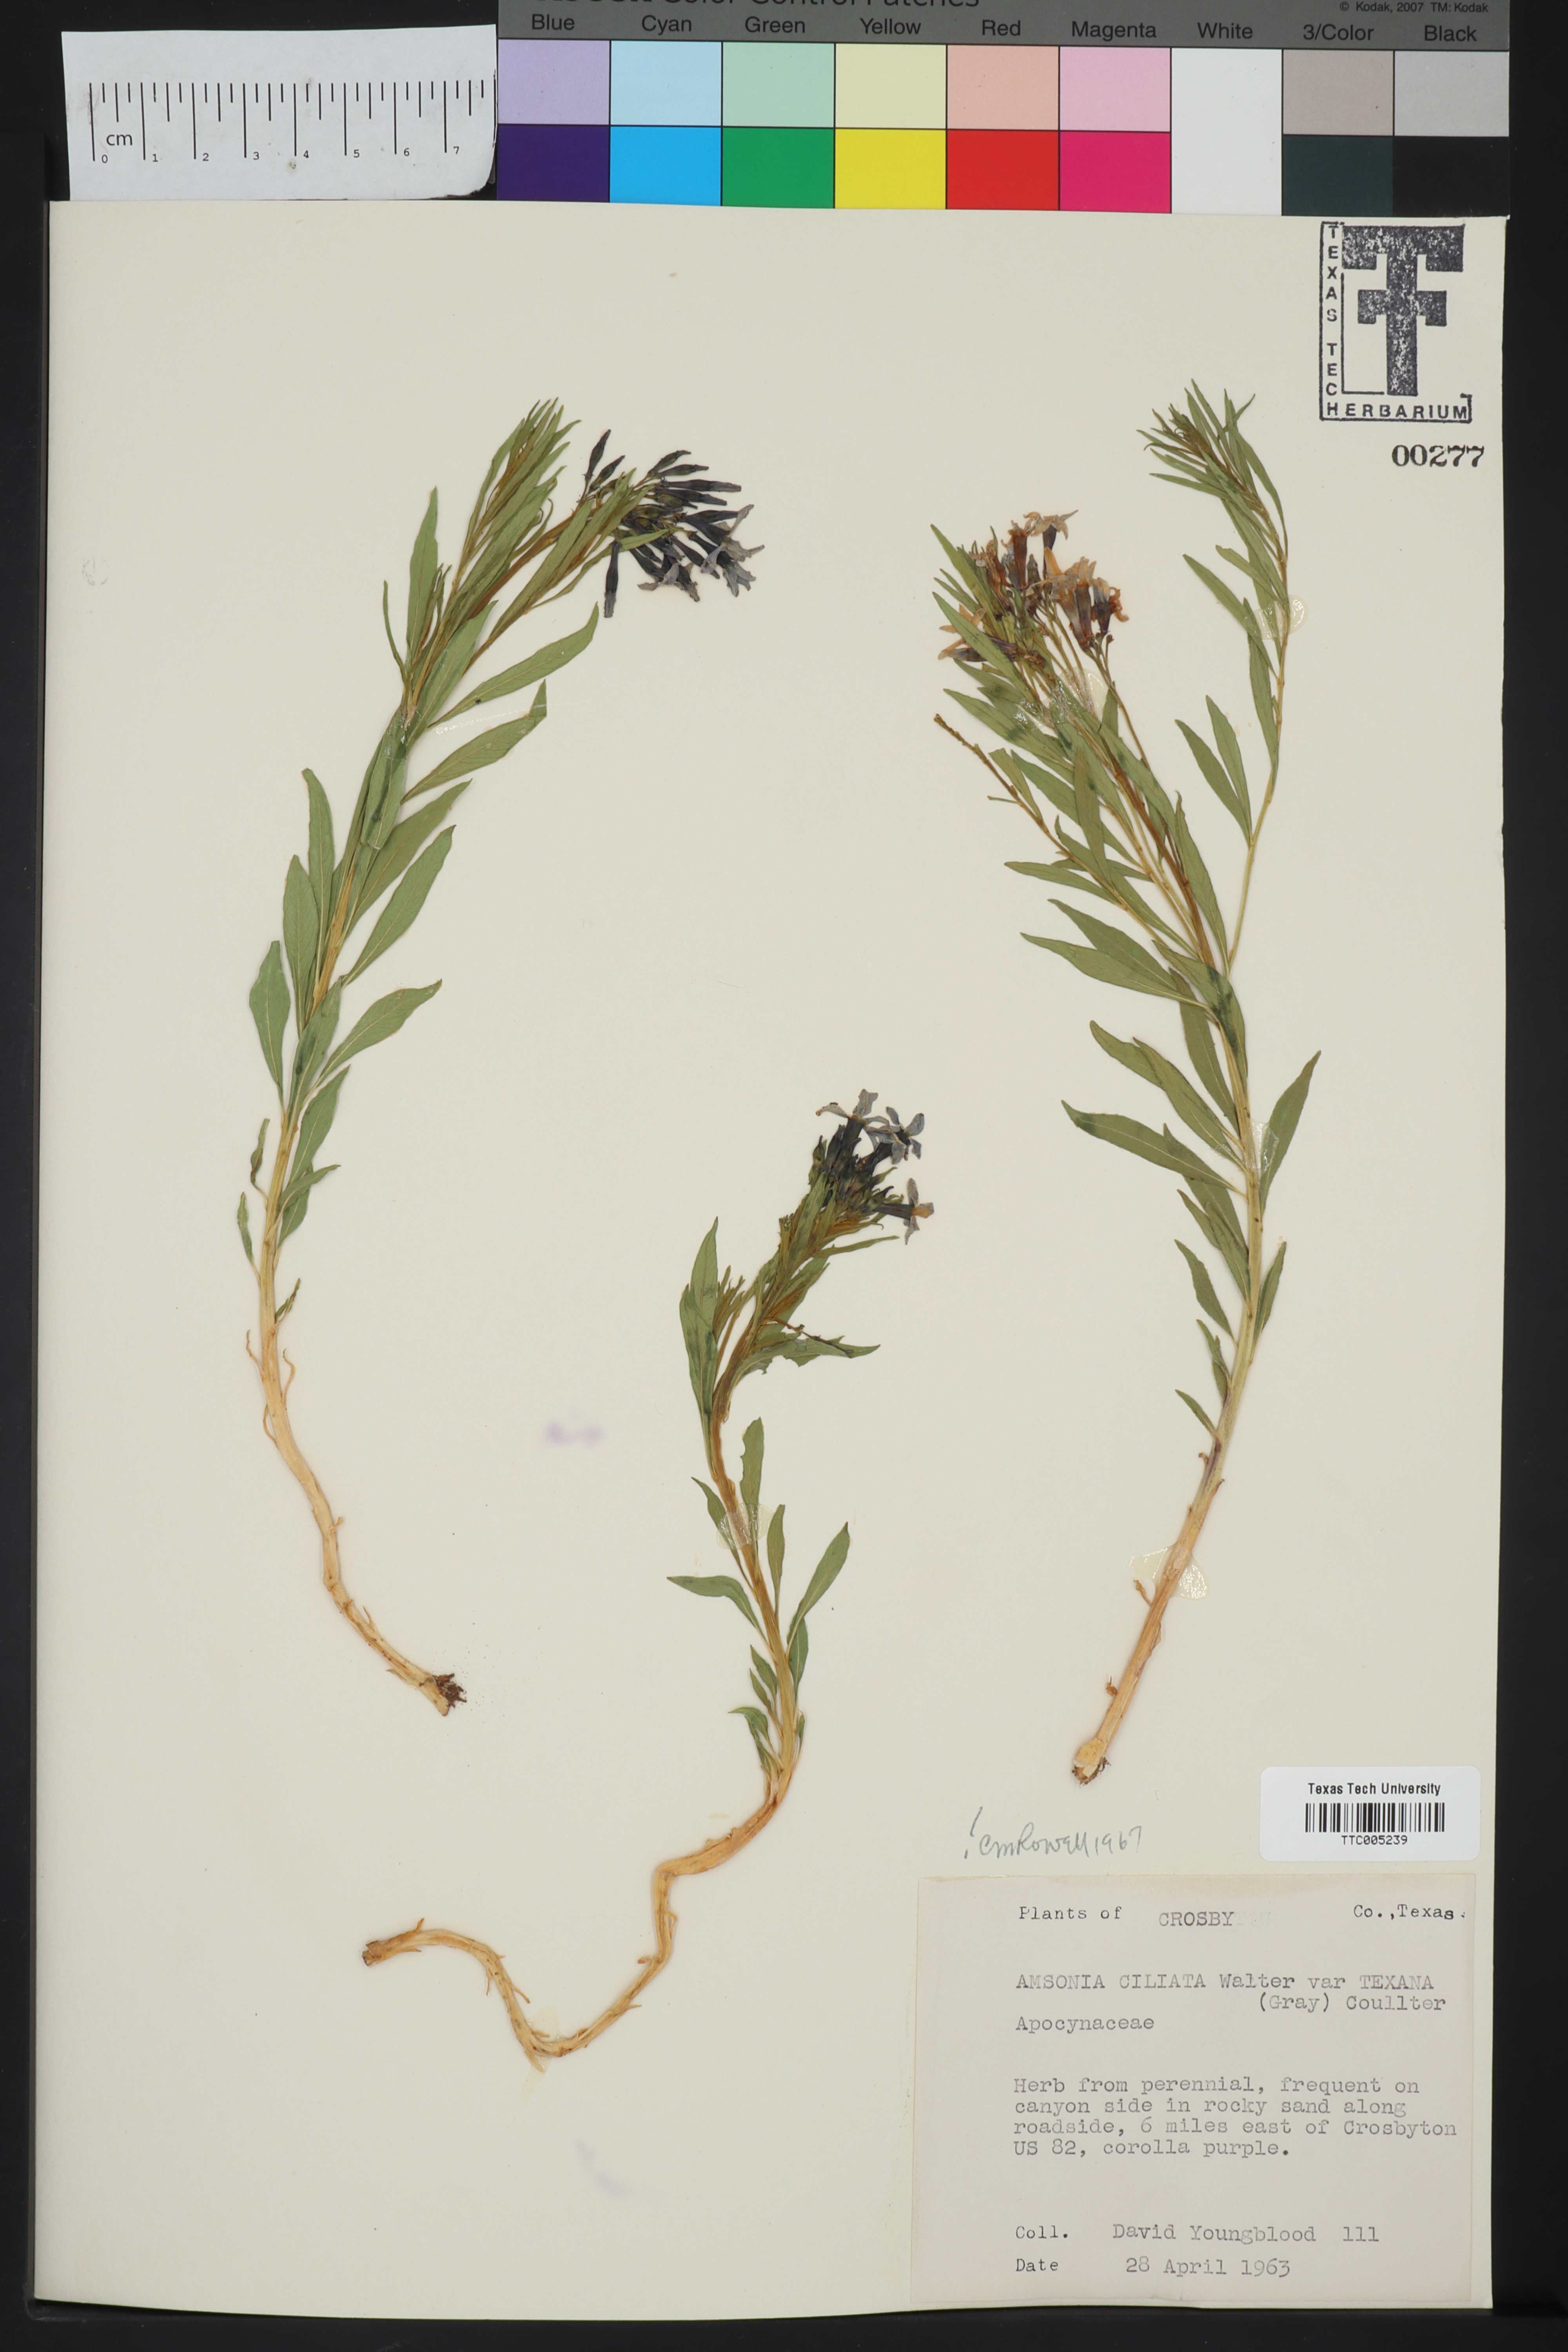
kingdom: Plantae
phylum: Tracheophyta
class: Magnoliopsida
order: Gentianales
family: Apocynaceae
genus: Amsonia
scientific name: Amsonia ciliata
